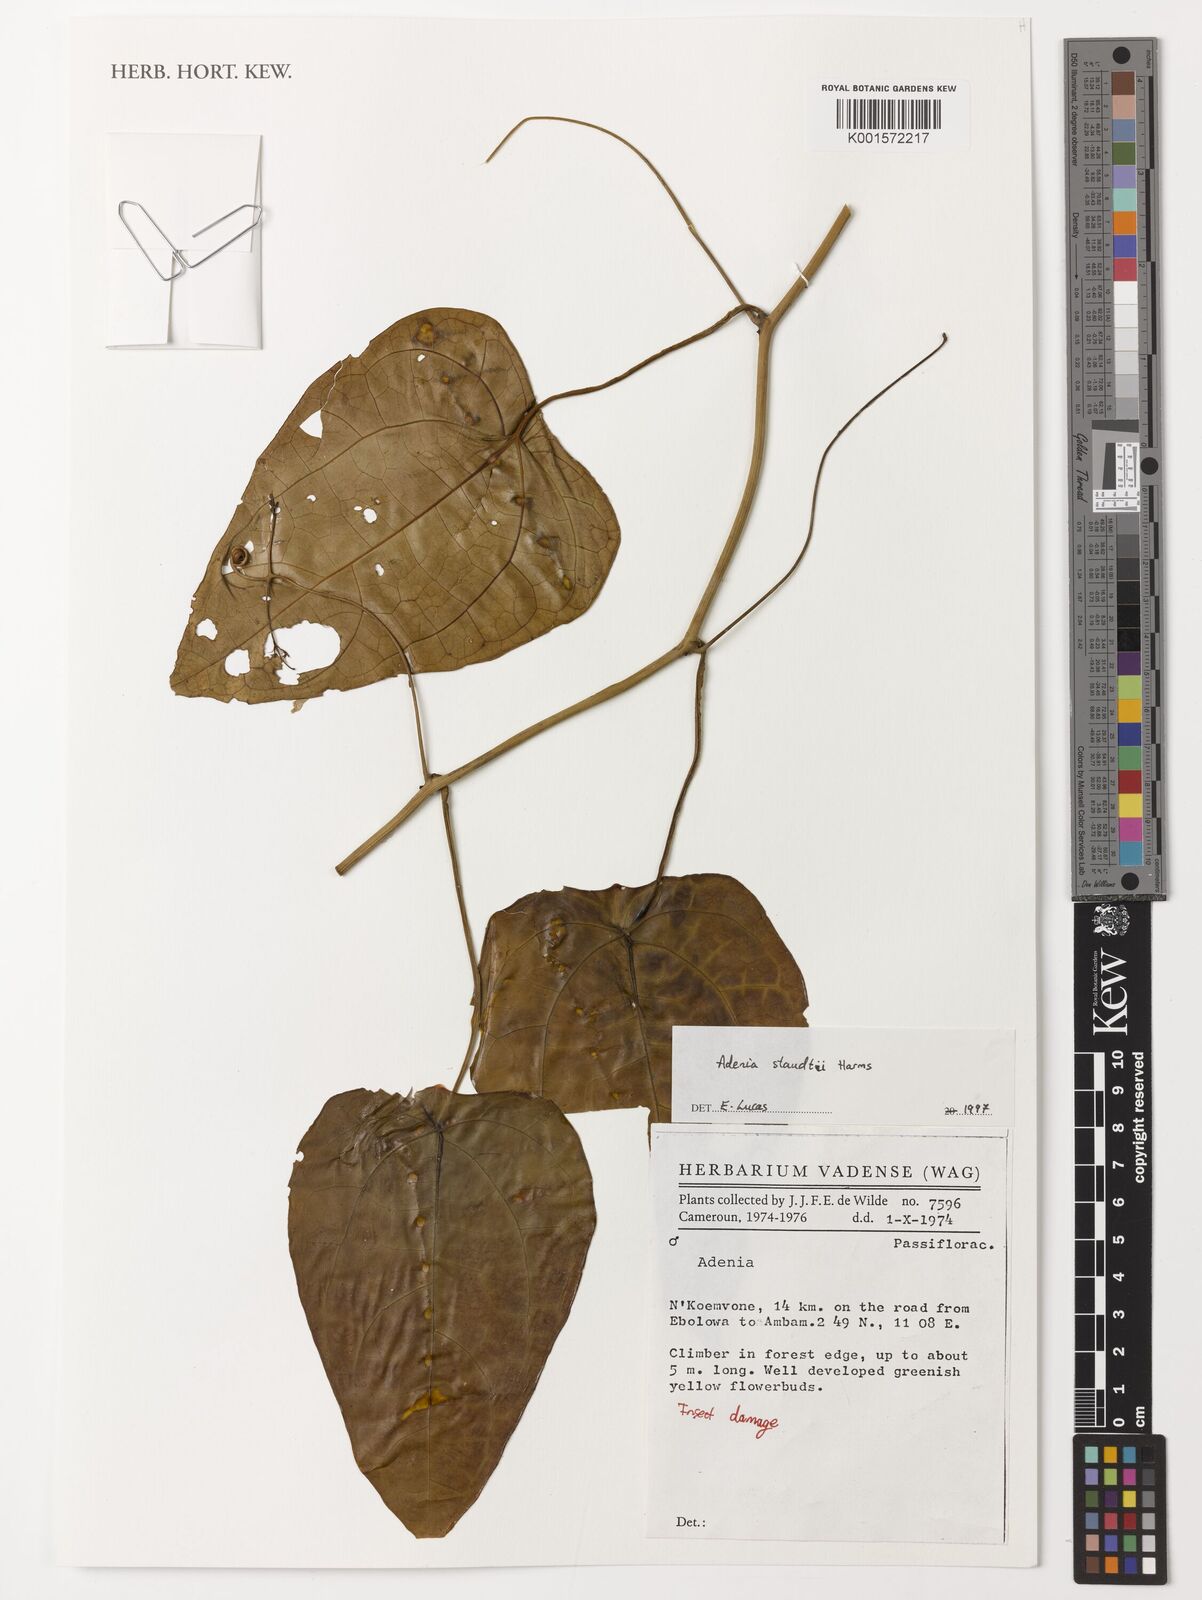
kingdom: Plantae
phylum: Tracheophyta
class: Magnoliopsida
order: Malpighiales
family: Passifloraceae
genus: Adenia
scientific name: Adenia staudtii
